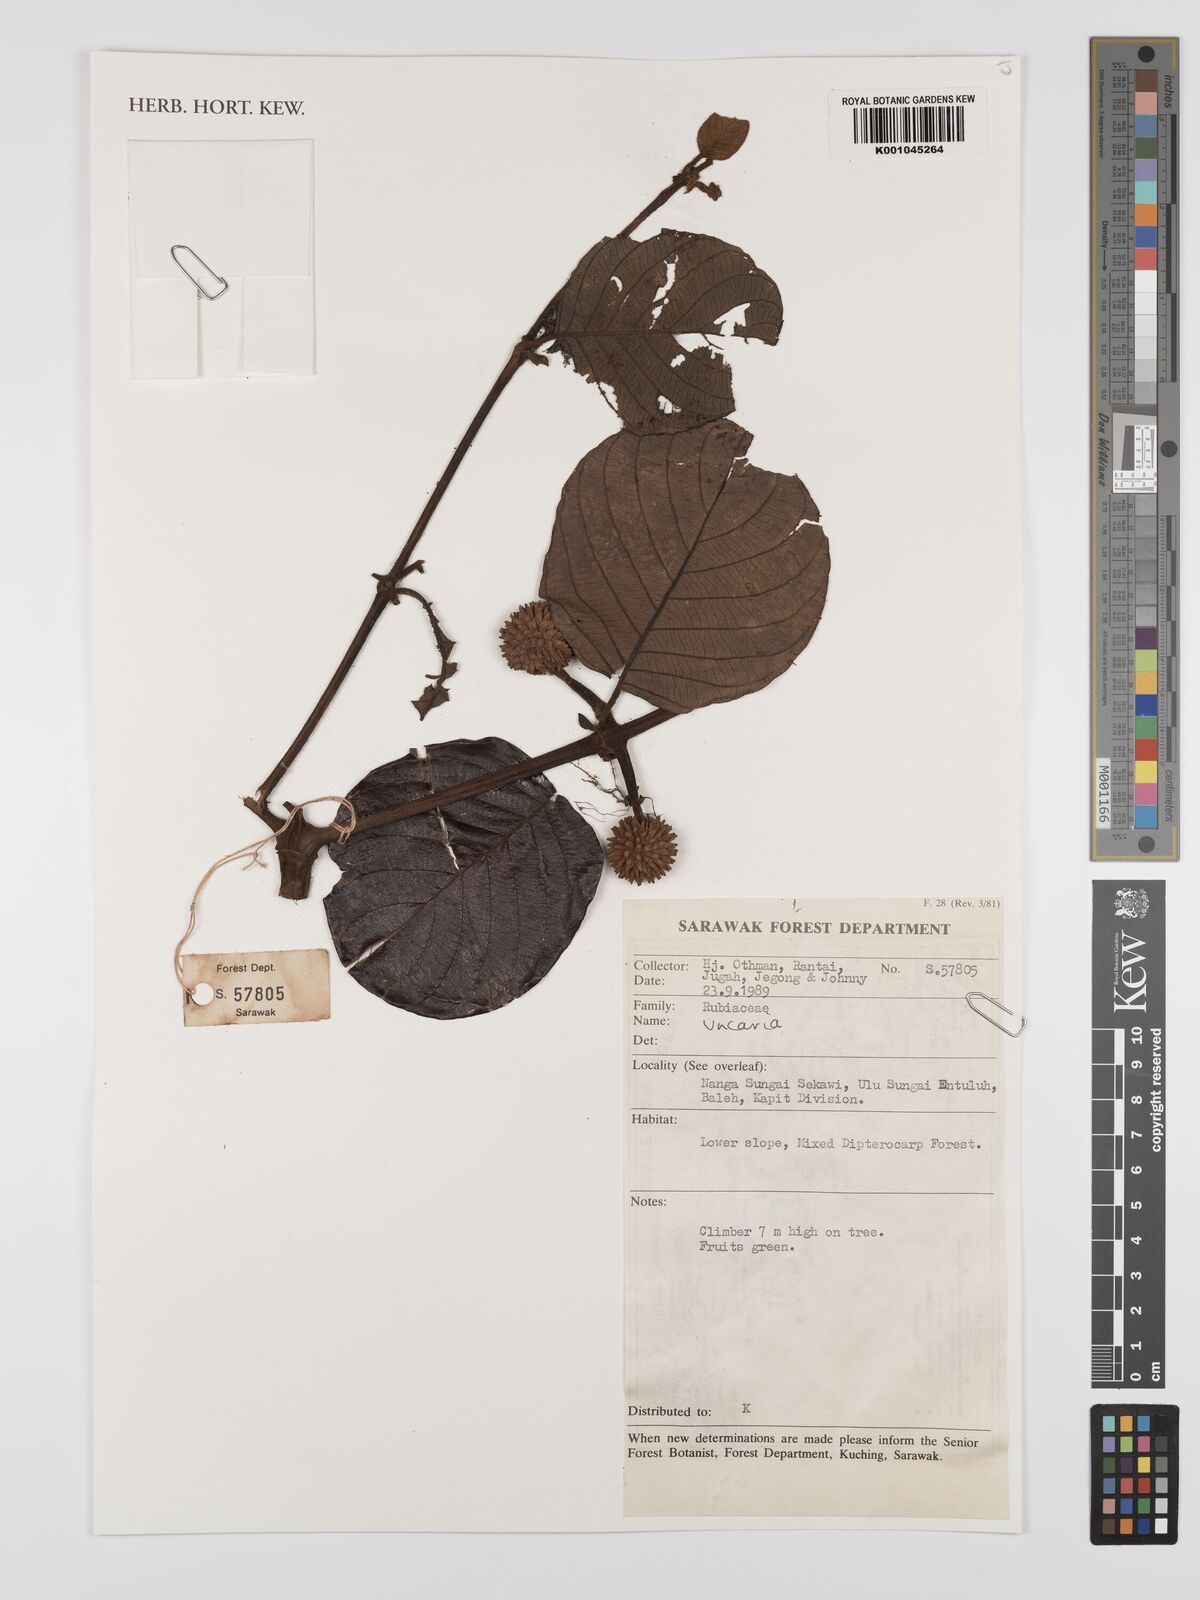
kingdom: Plantae
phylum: Tracheophyta
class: Magnoliopsida
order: Gentianales
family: Rubiaceae
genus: Uncaria
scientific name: Uncaria
